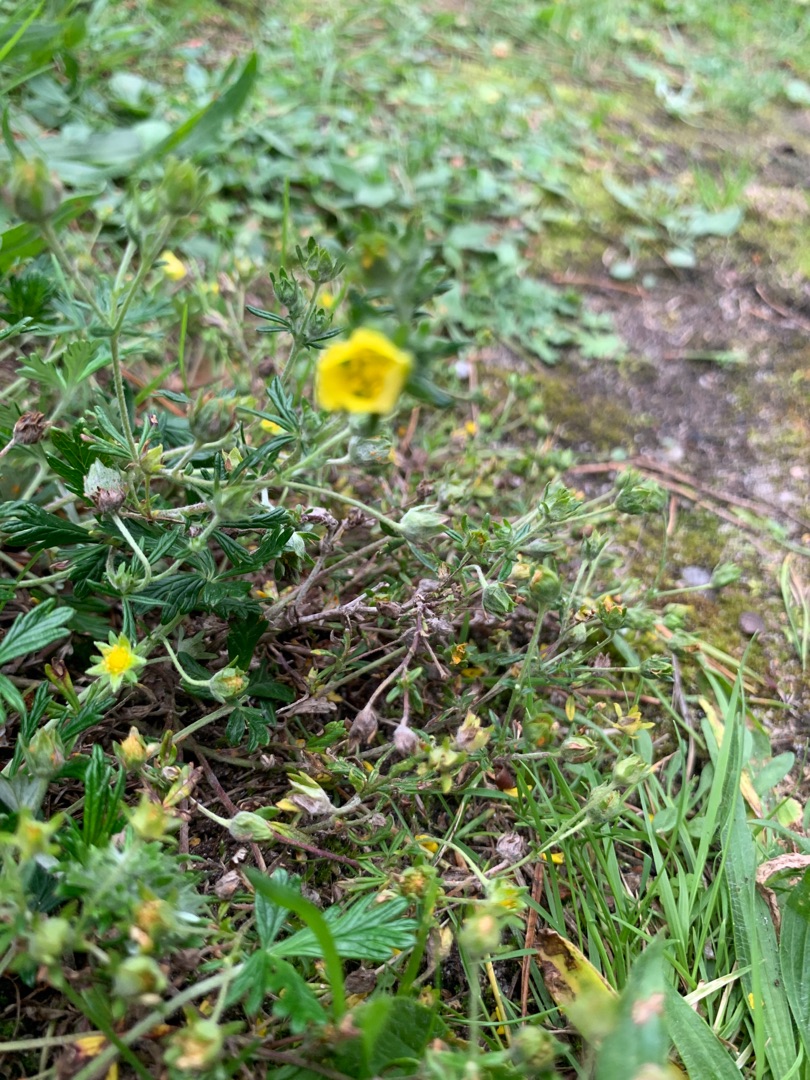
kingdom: Plantae
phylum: Tracheophyta
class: Magnoliopsida
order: Rosales
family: Rosaceae
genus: Potentilla
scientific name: Potentilla argentea
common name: Sølv-potentil
